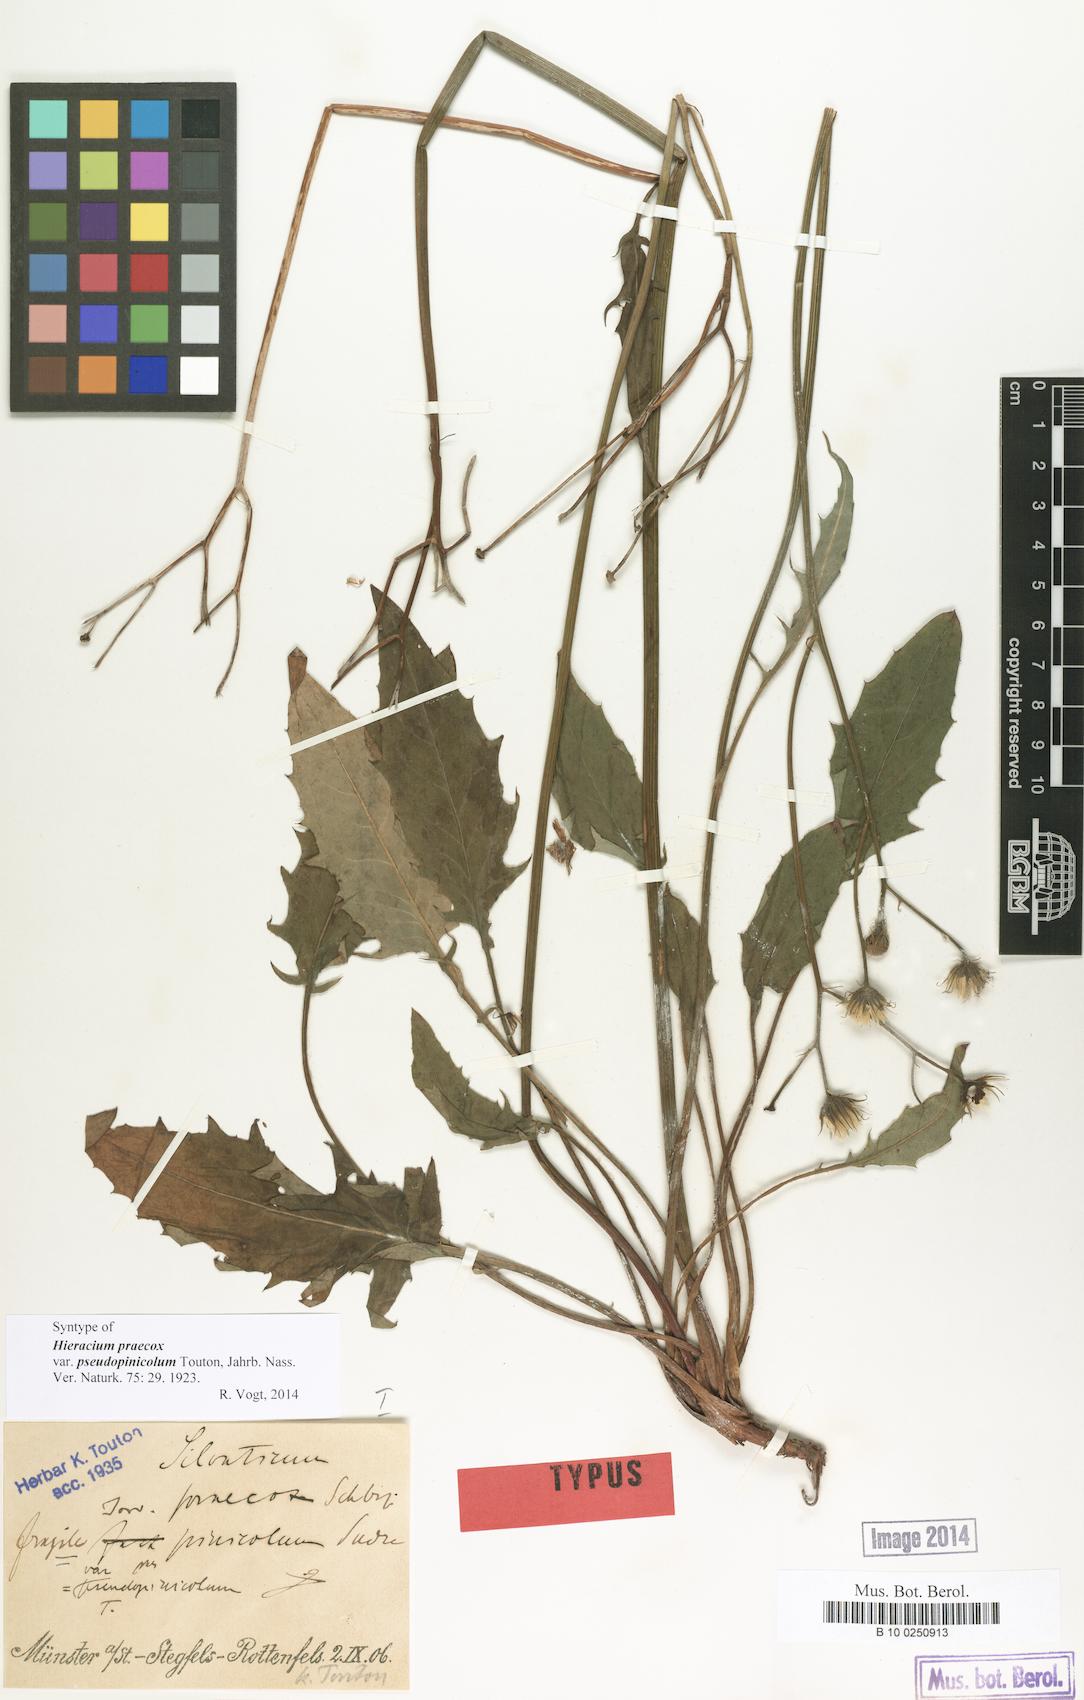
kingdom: Plantae
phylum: Tracheophyta
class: Magnoliopsida
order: Asterales
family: Asteraceae
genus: Hieracium
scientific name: Hieracium praecox
